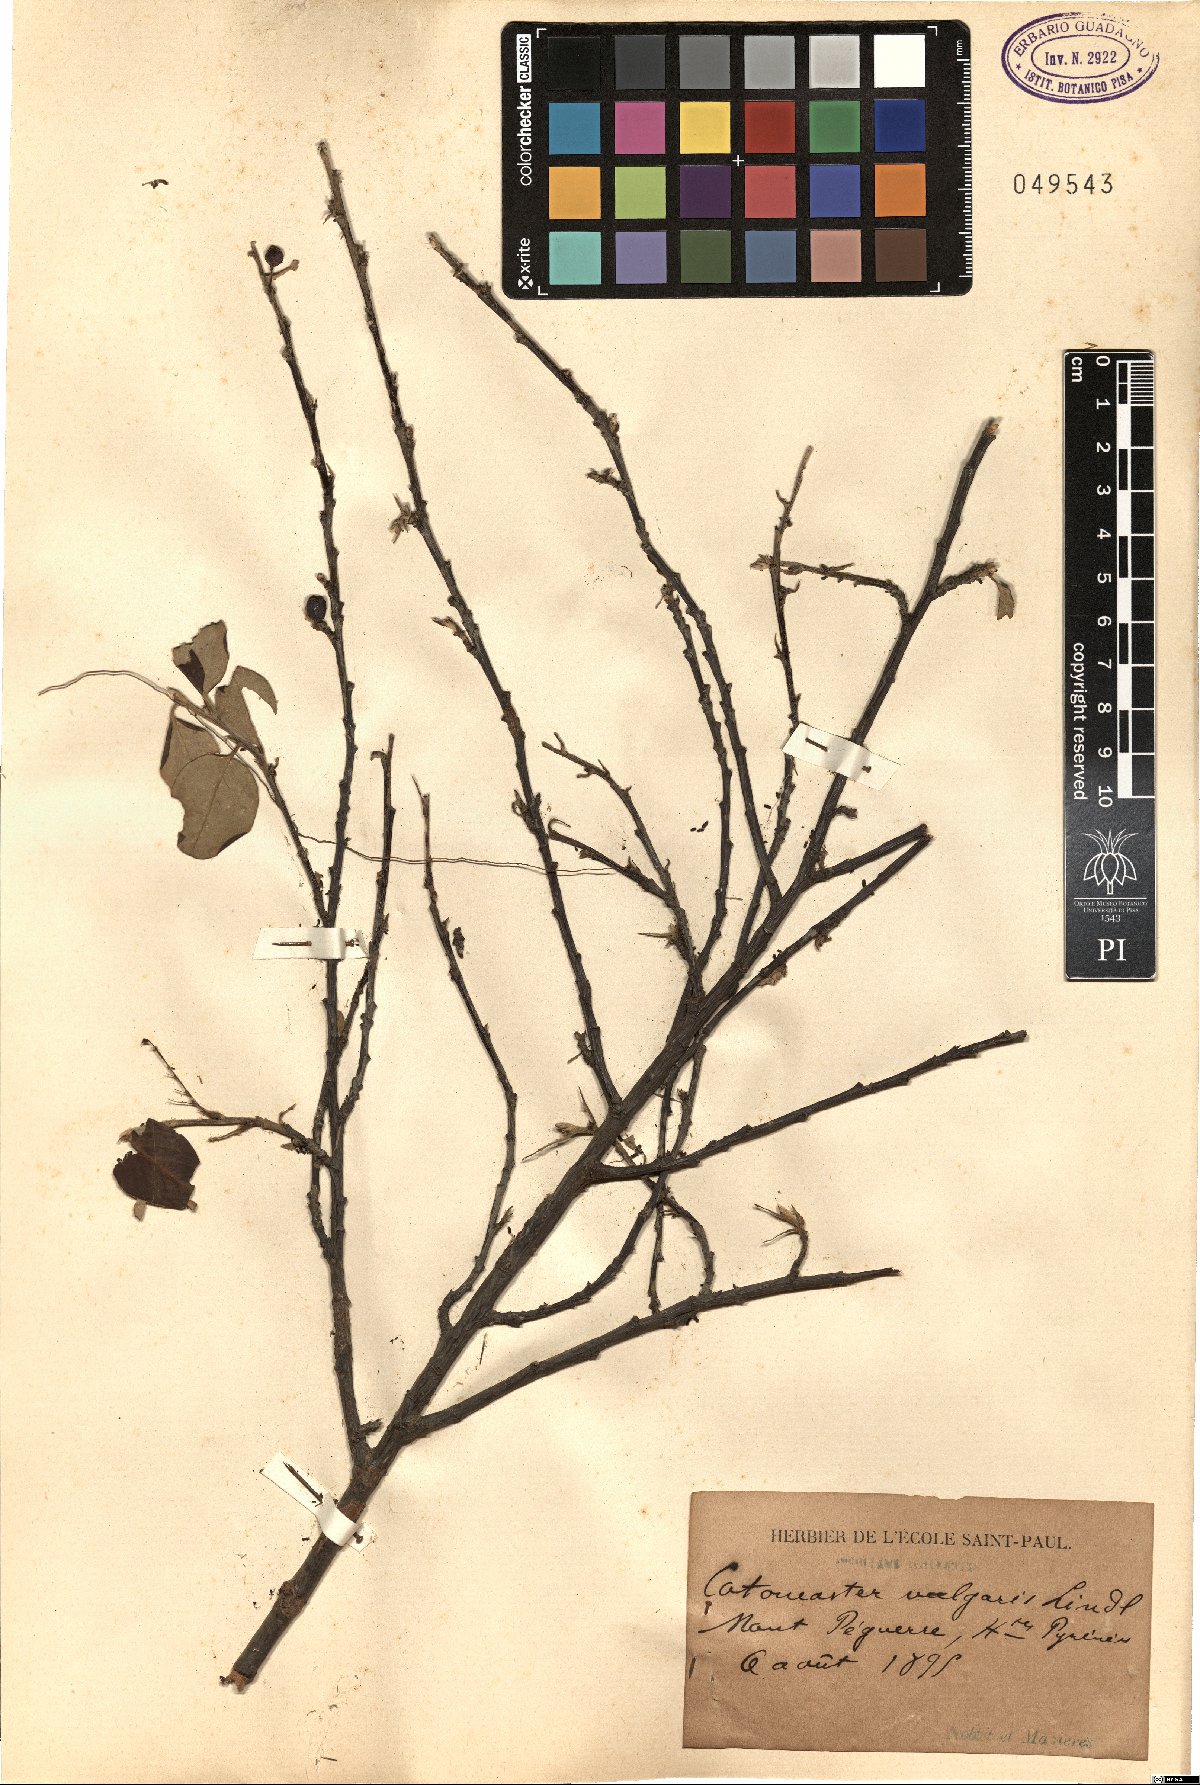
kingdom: Plantae
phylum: Tracheophyta
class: Magnoliopsida
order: Rosales
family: Rosaceae
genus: Cotoneaster
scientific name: Cotoneaster integerrimus
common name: Wild cotoneaster
